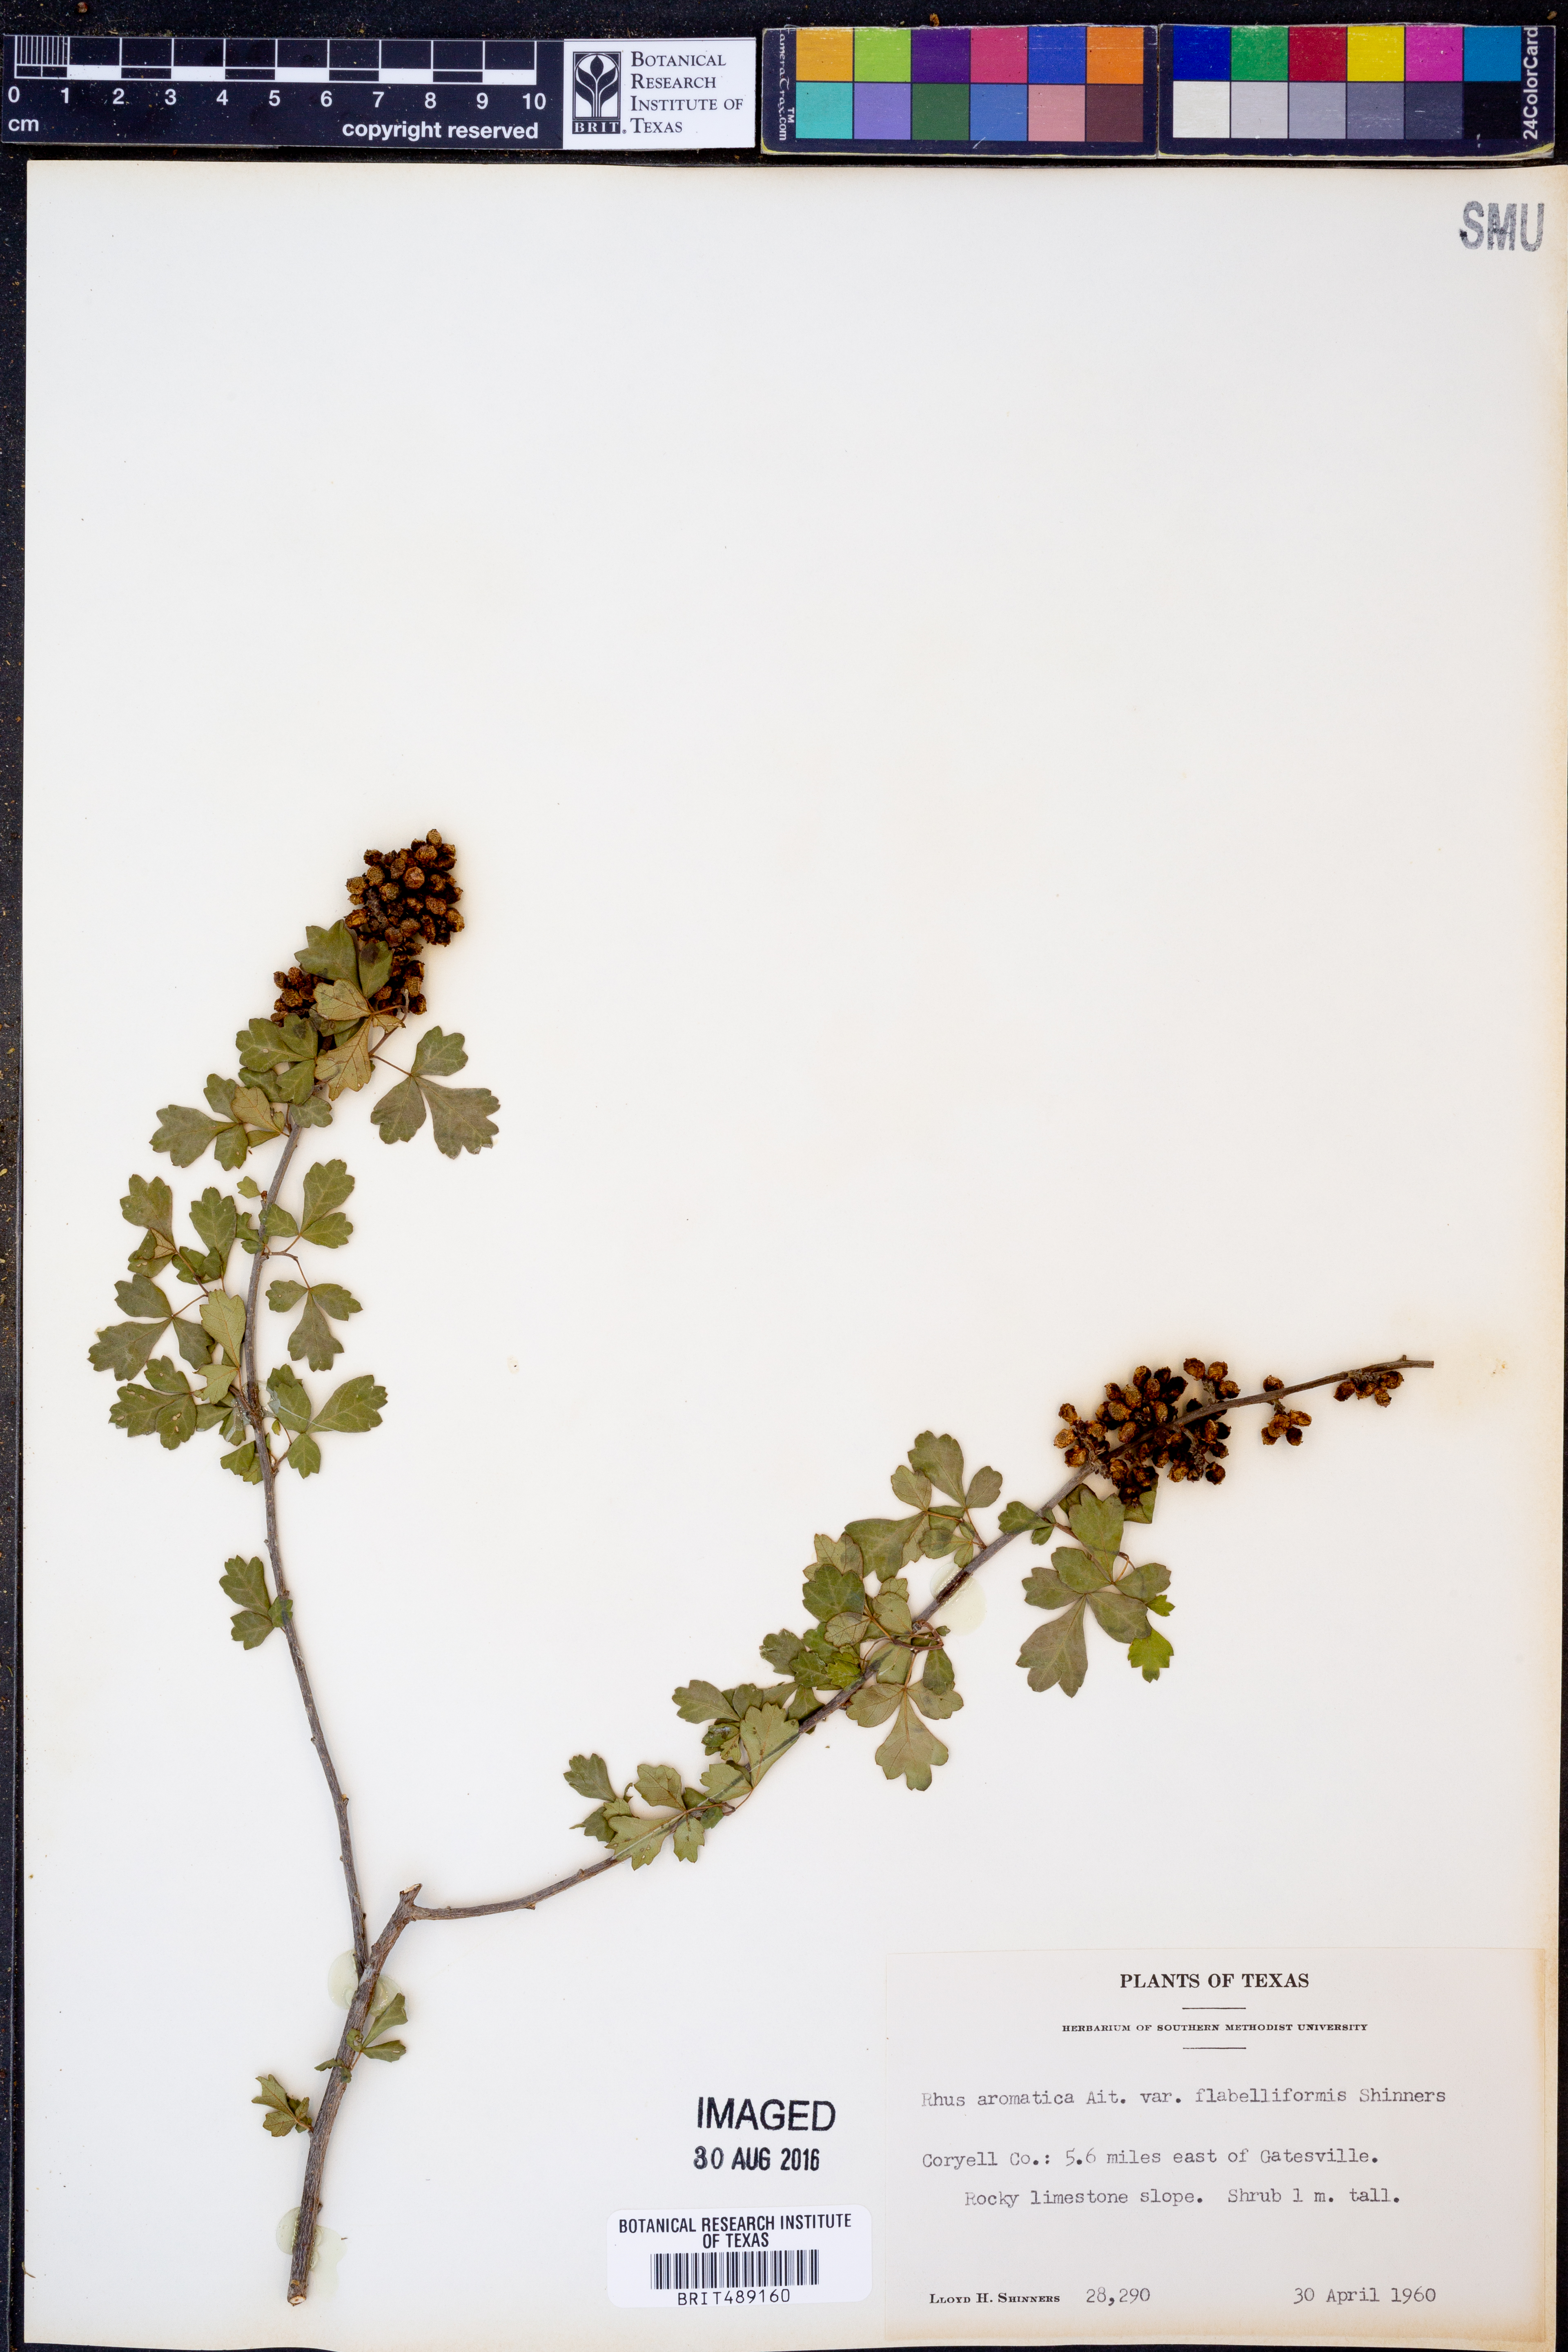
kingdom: Plantae
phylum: Tracheophyta
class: Magnoliopsida
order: Sapindales
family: Anacardiaceae
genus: Rhus
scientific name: Rhus trilobata
